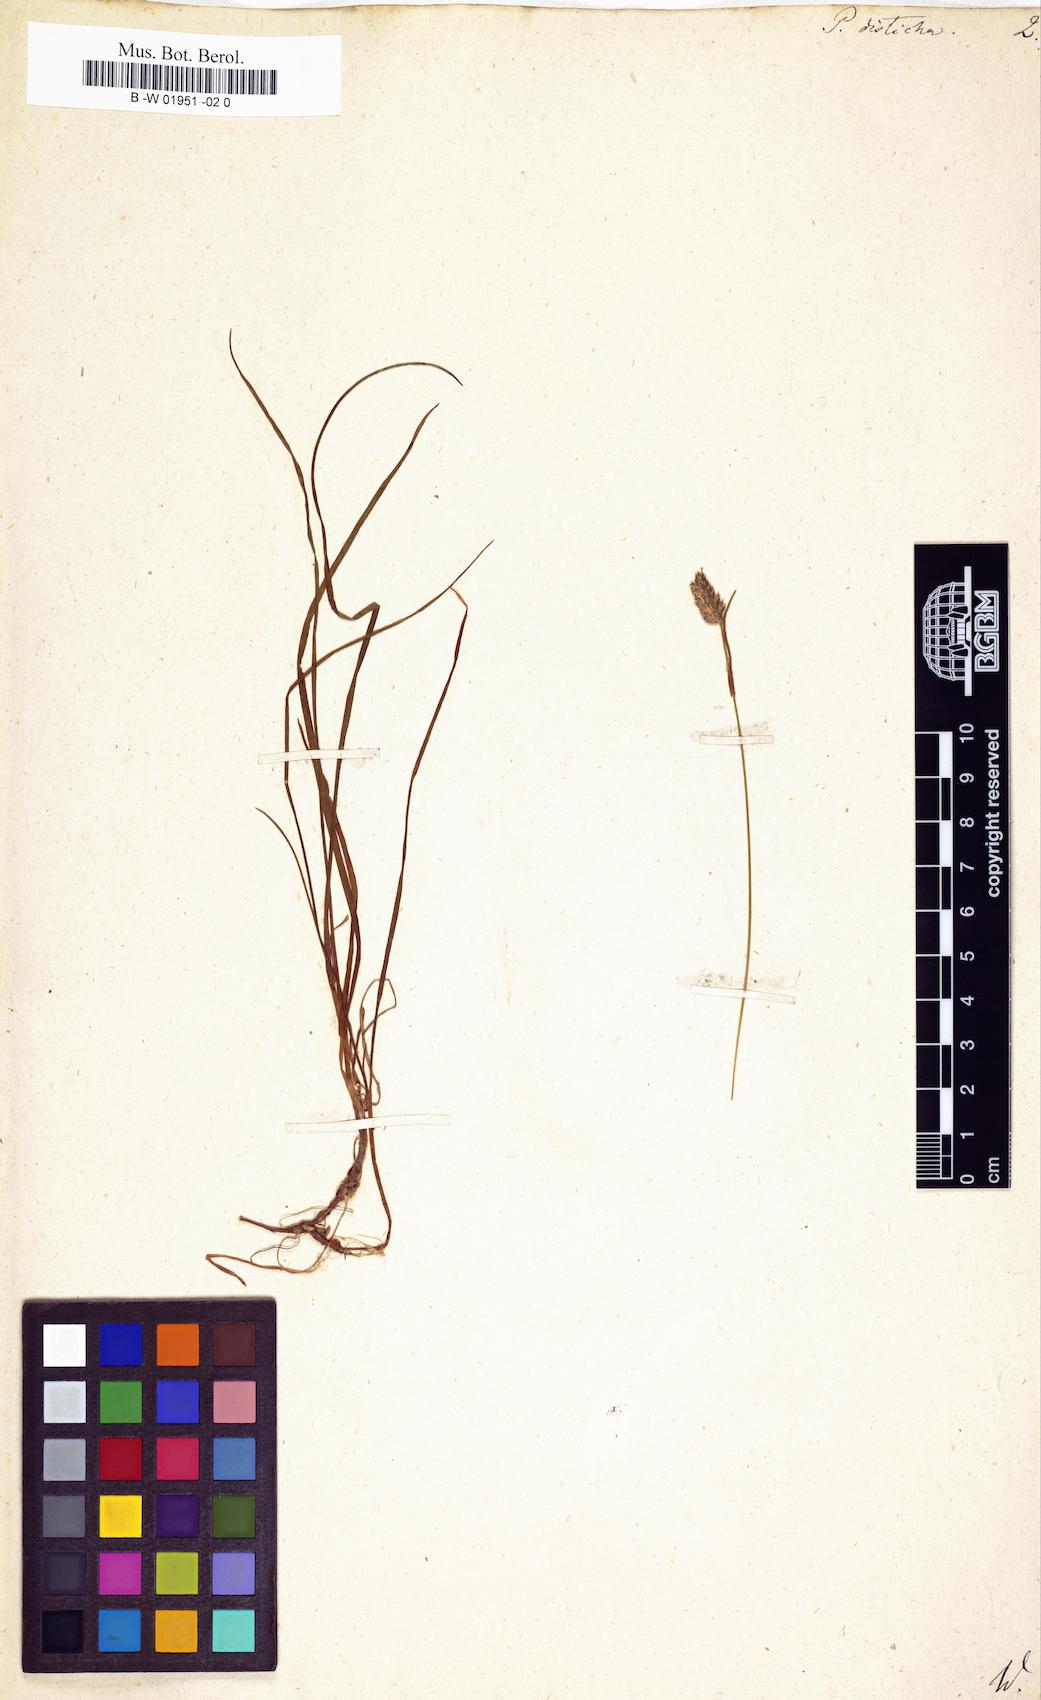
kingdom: Plantae
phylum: Tracheophyta
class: Liliopsida
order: Poales
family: Poaceae
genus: Oreochloa
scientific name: Oreochloa disticha
